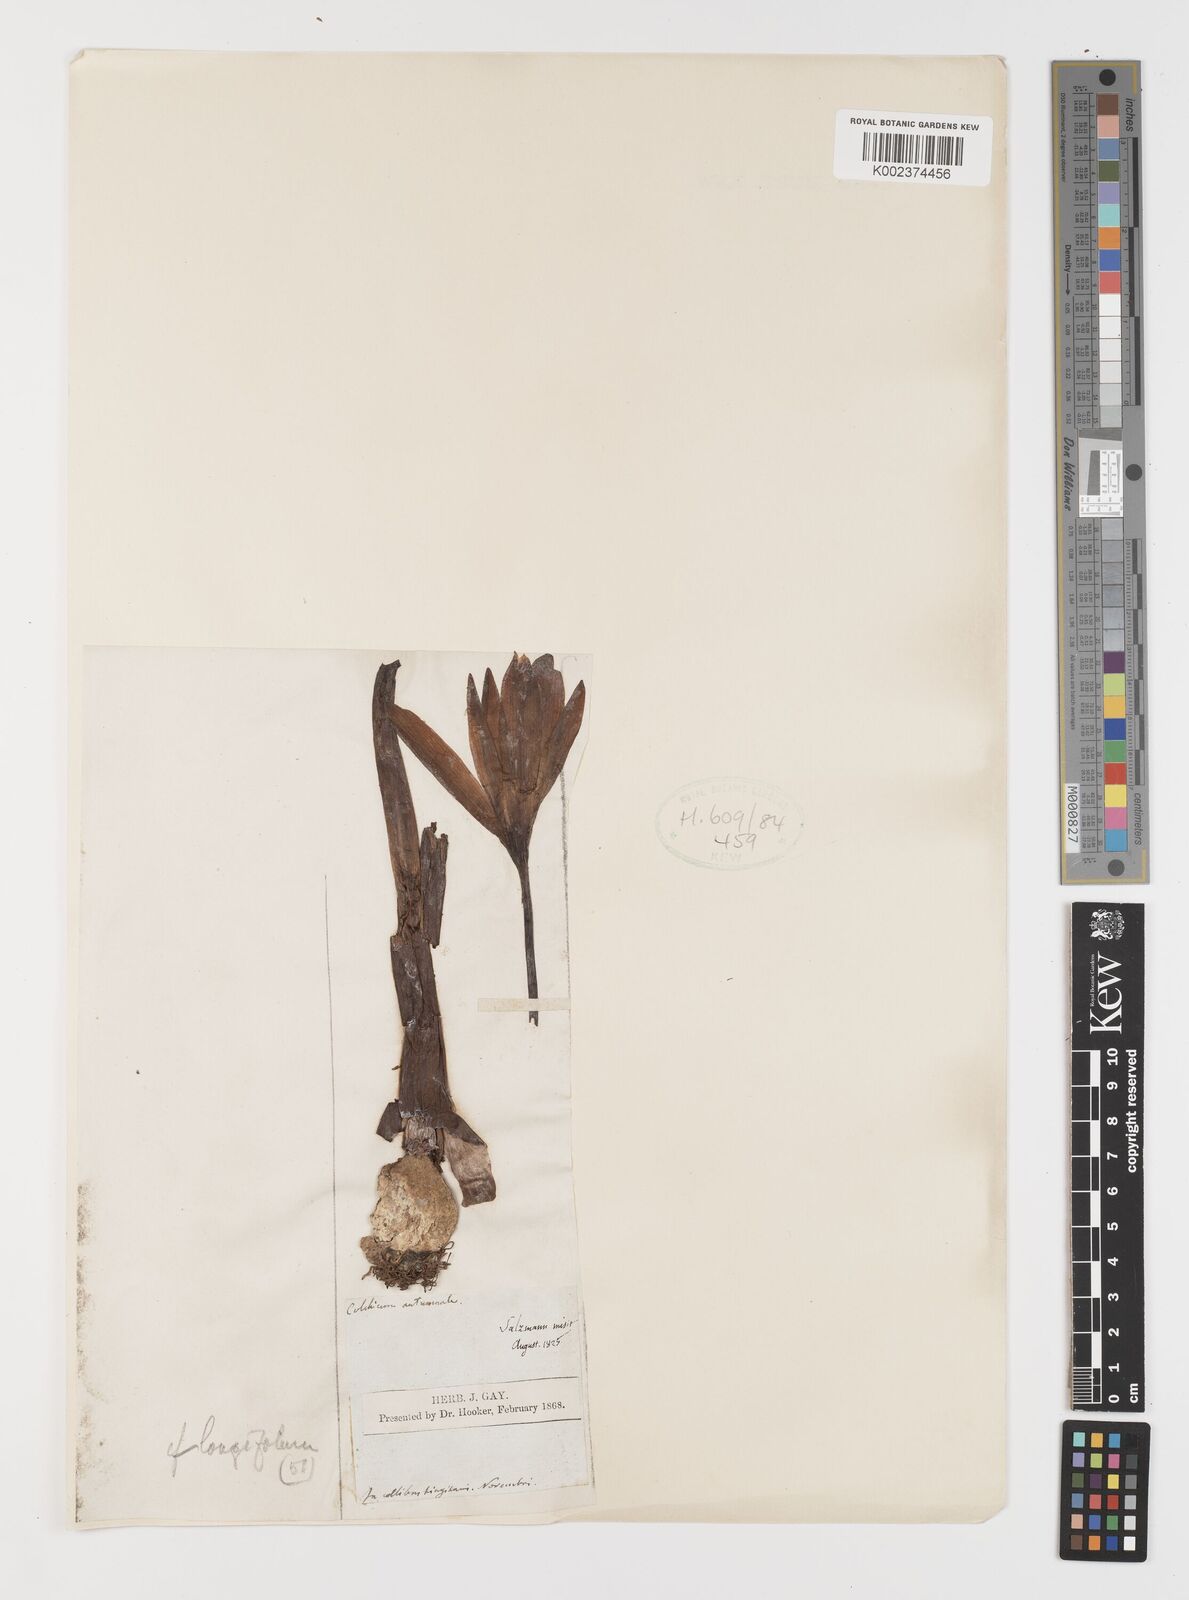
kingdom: Plantae
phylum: Tracheophyta
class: Liliopsida
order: Liliales
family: Colchicaceae
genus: Colchicum
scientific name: Colchicum longifolium
